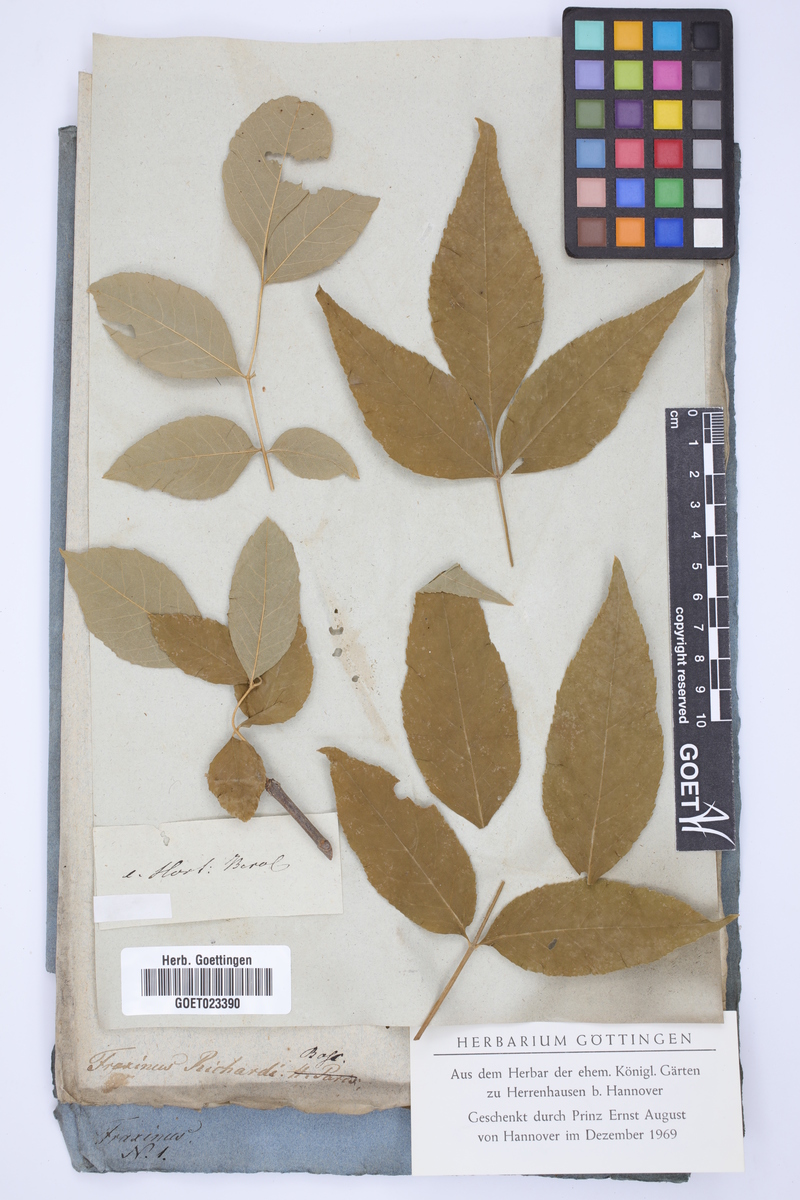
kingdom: Plantae
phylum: Tracheophyta
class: Magnoliopsida
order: Lamiales
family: Oleaceae
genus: Fraxinus
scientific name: Fraxinus pennsylvanica
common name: Green ash
